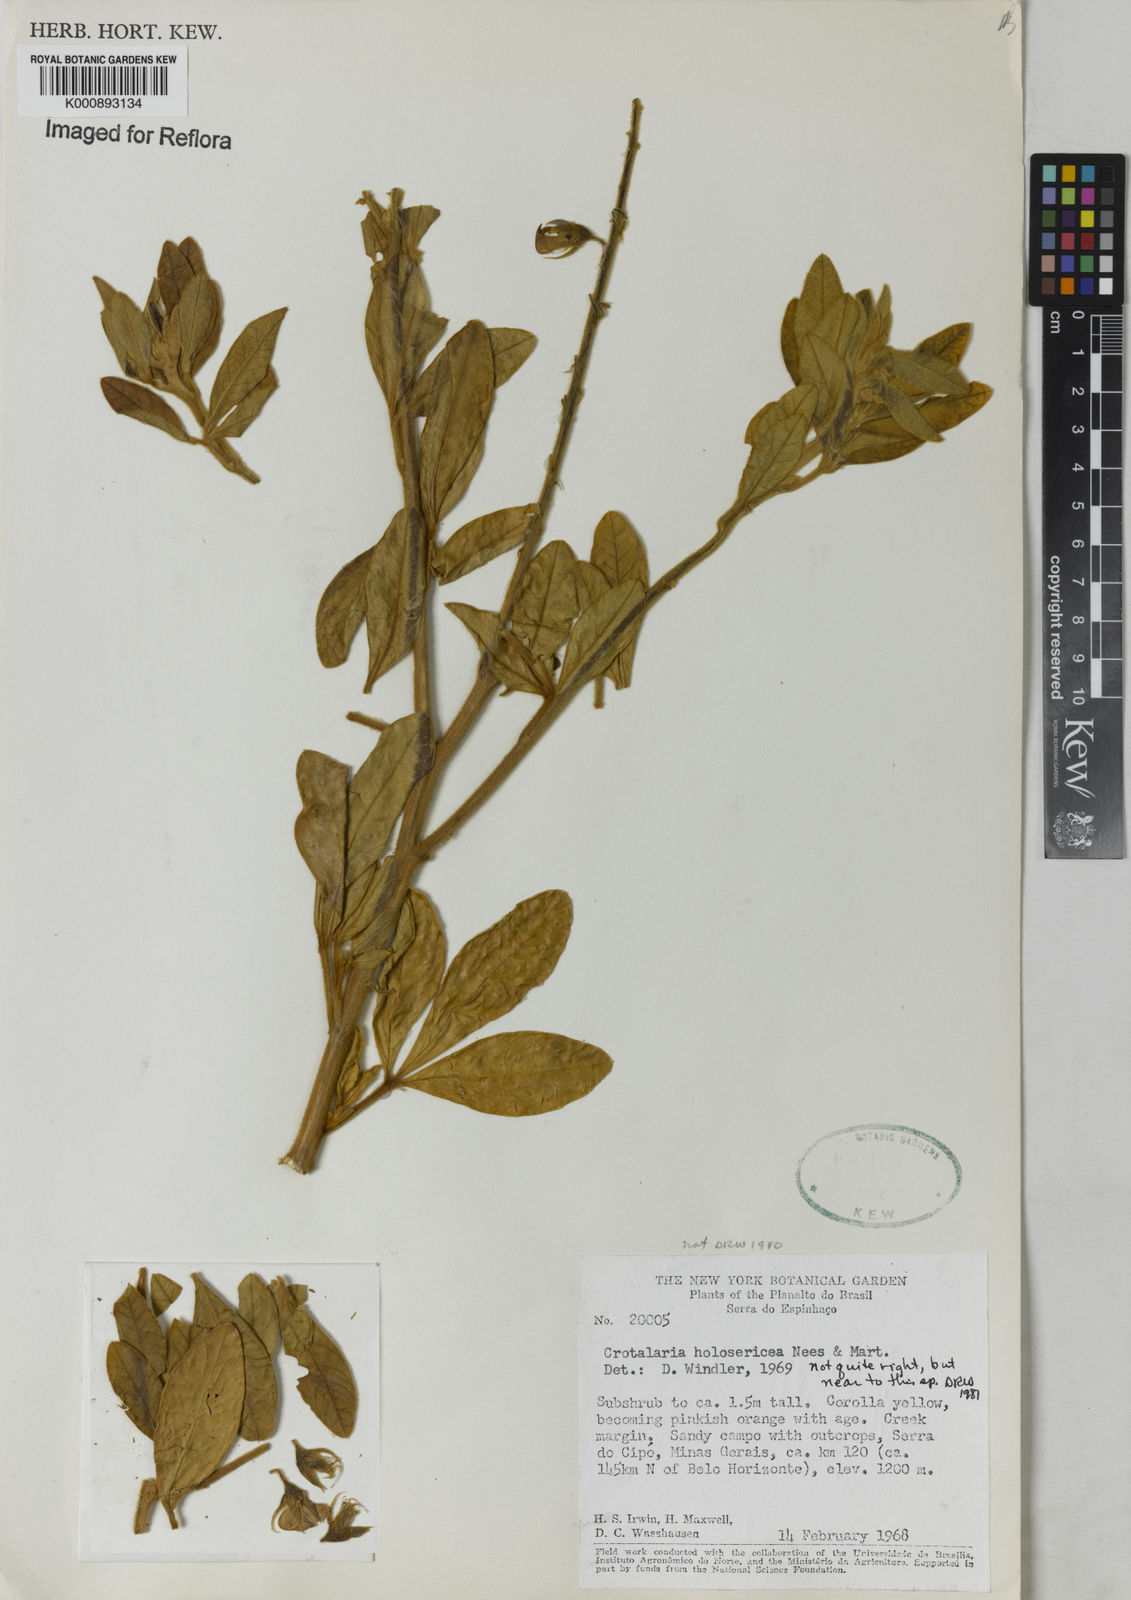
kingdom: Plantae
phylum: Tracheophyta
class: Magnoliopsida
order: Fabales
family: Fabaceae
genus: Crotalaria
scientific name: Crotalaria holosericea
